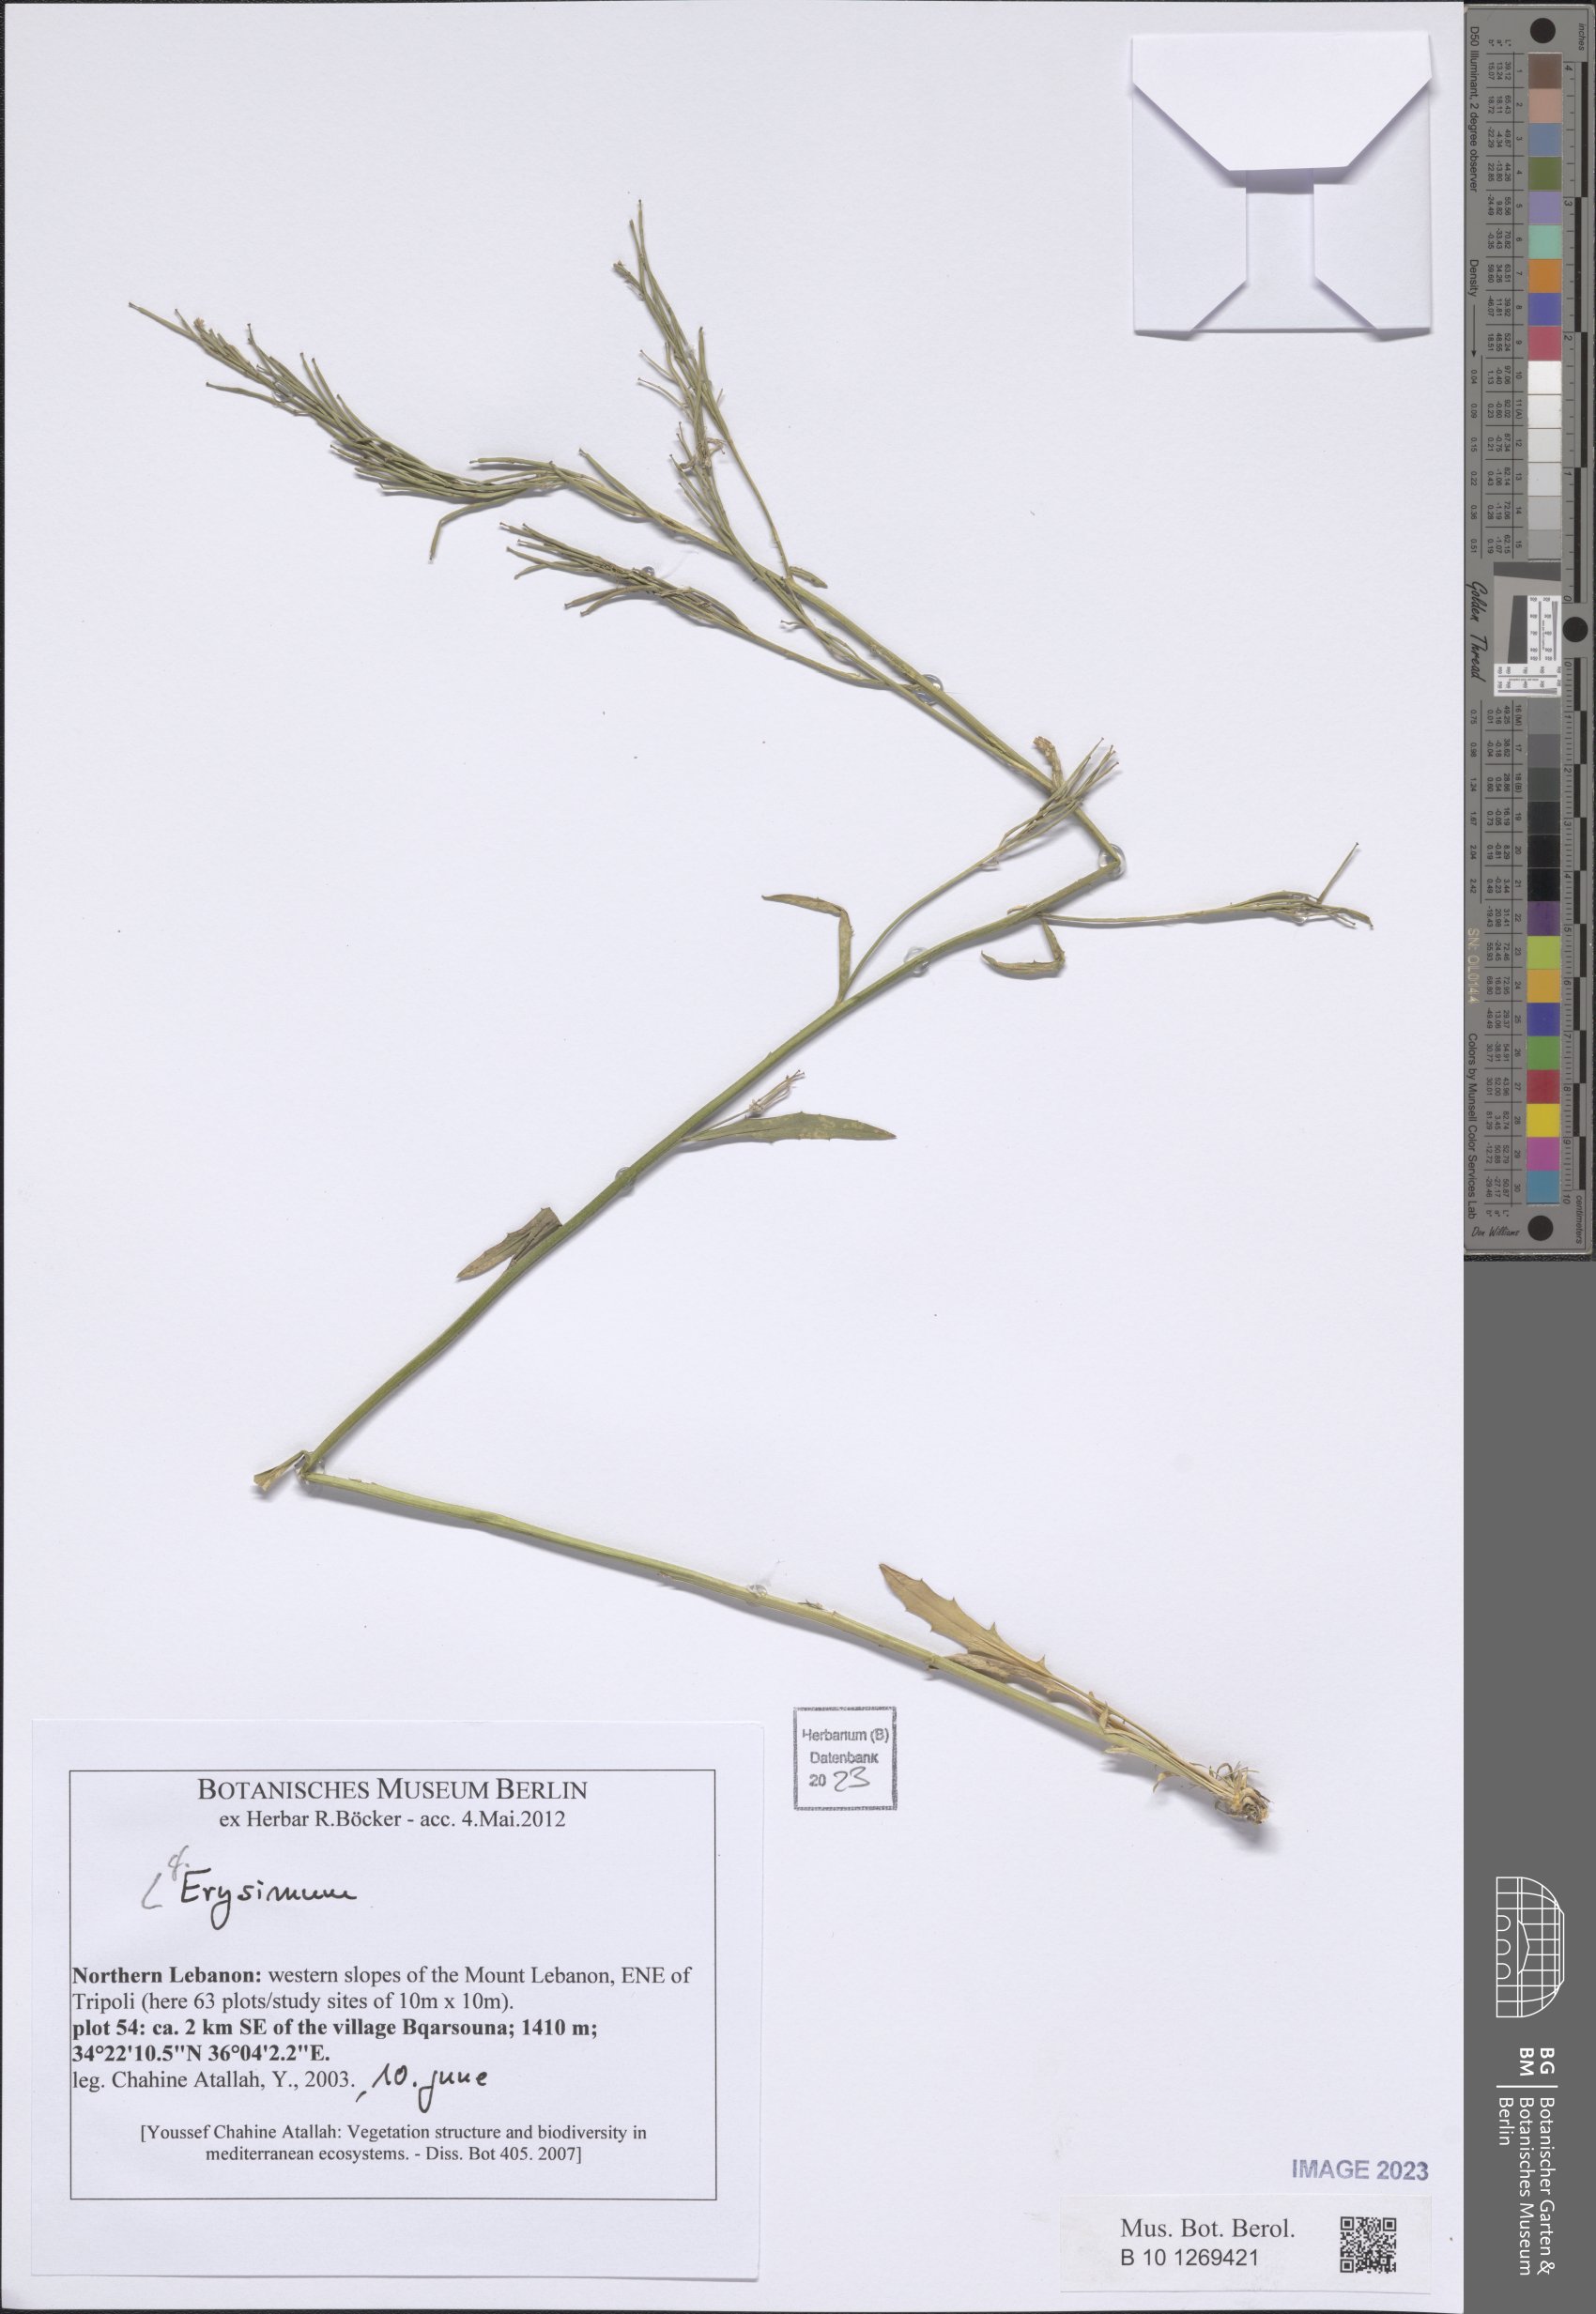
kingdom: Plantae
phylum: Tracheophyta
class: Magnoliopsida
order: Brassicales
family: Brassicaceae
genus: Erysimum
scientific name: Erysimum
